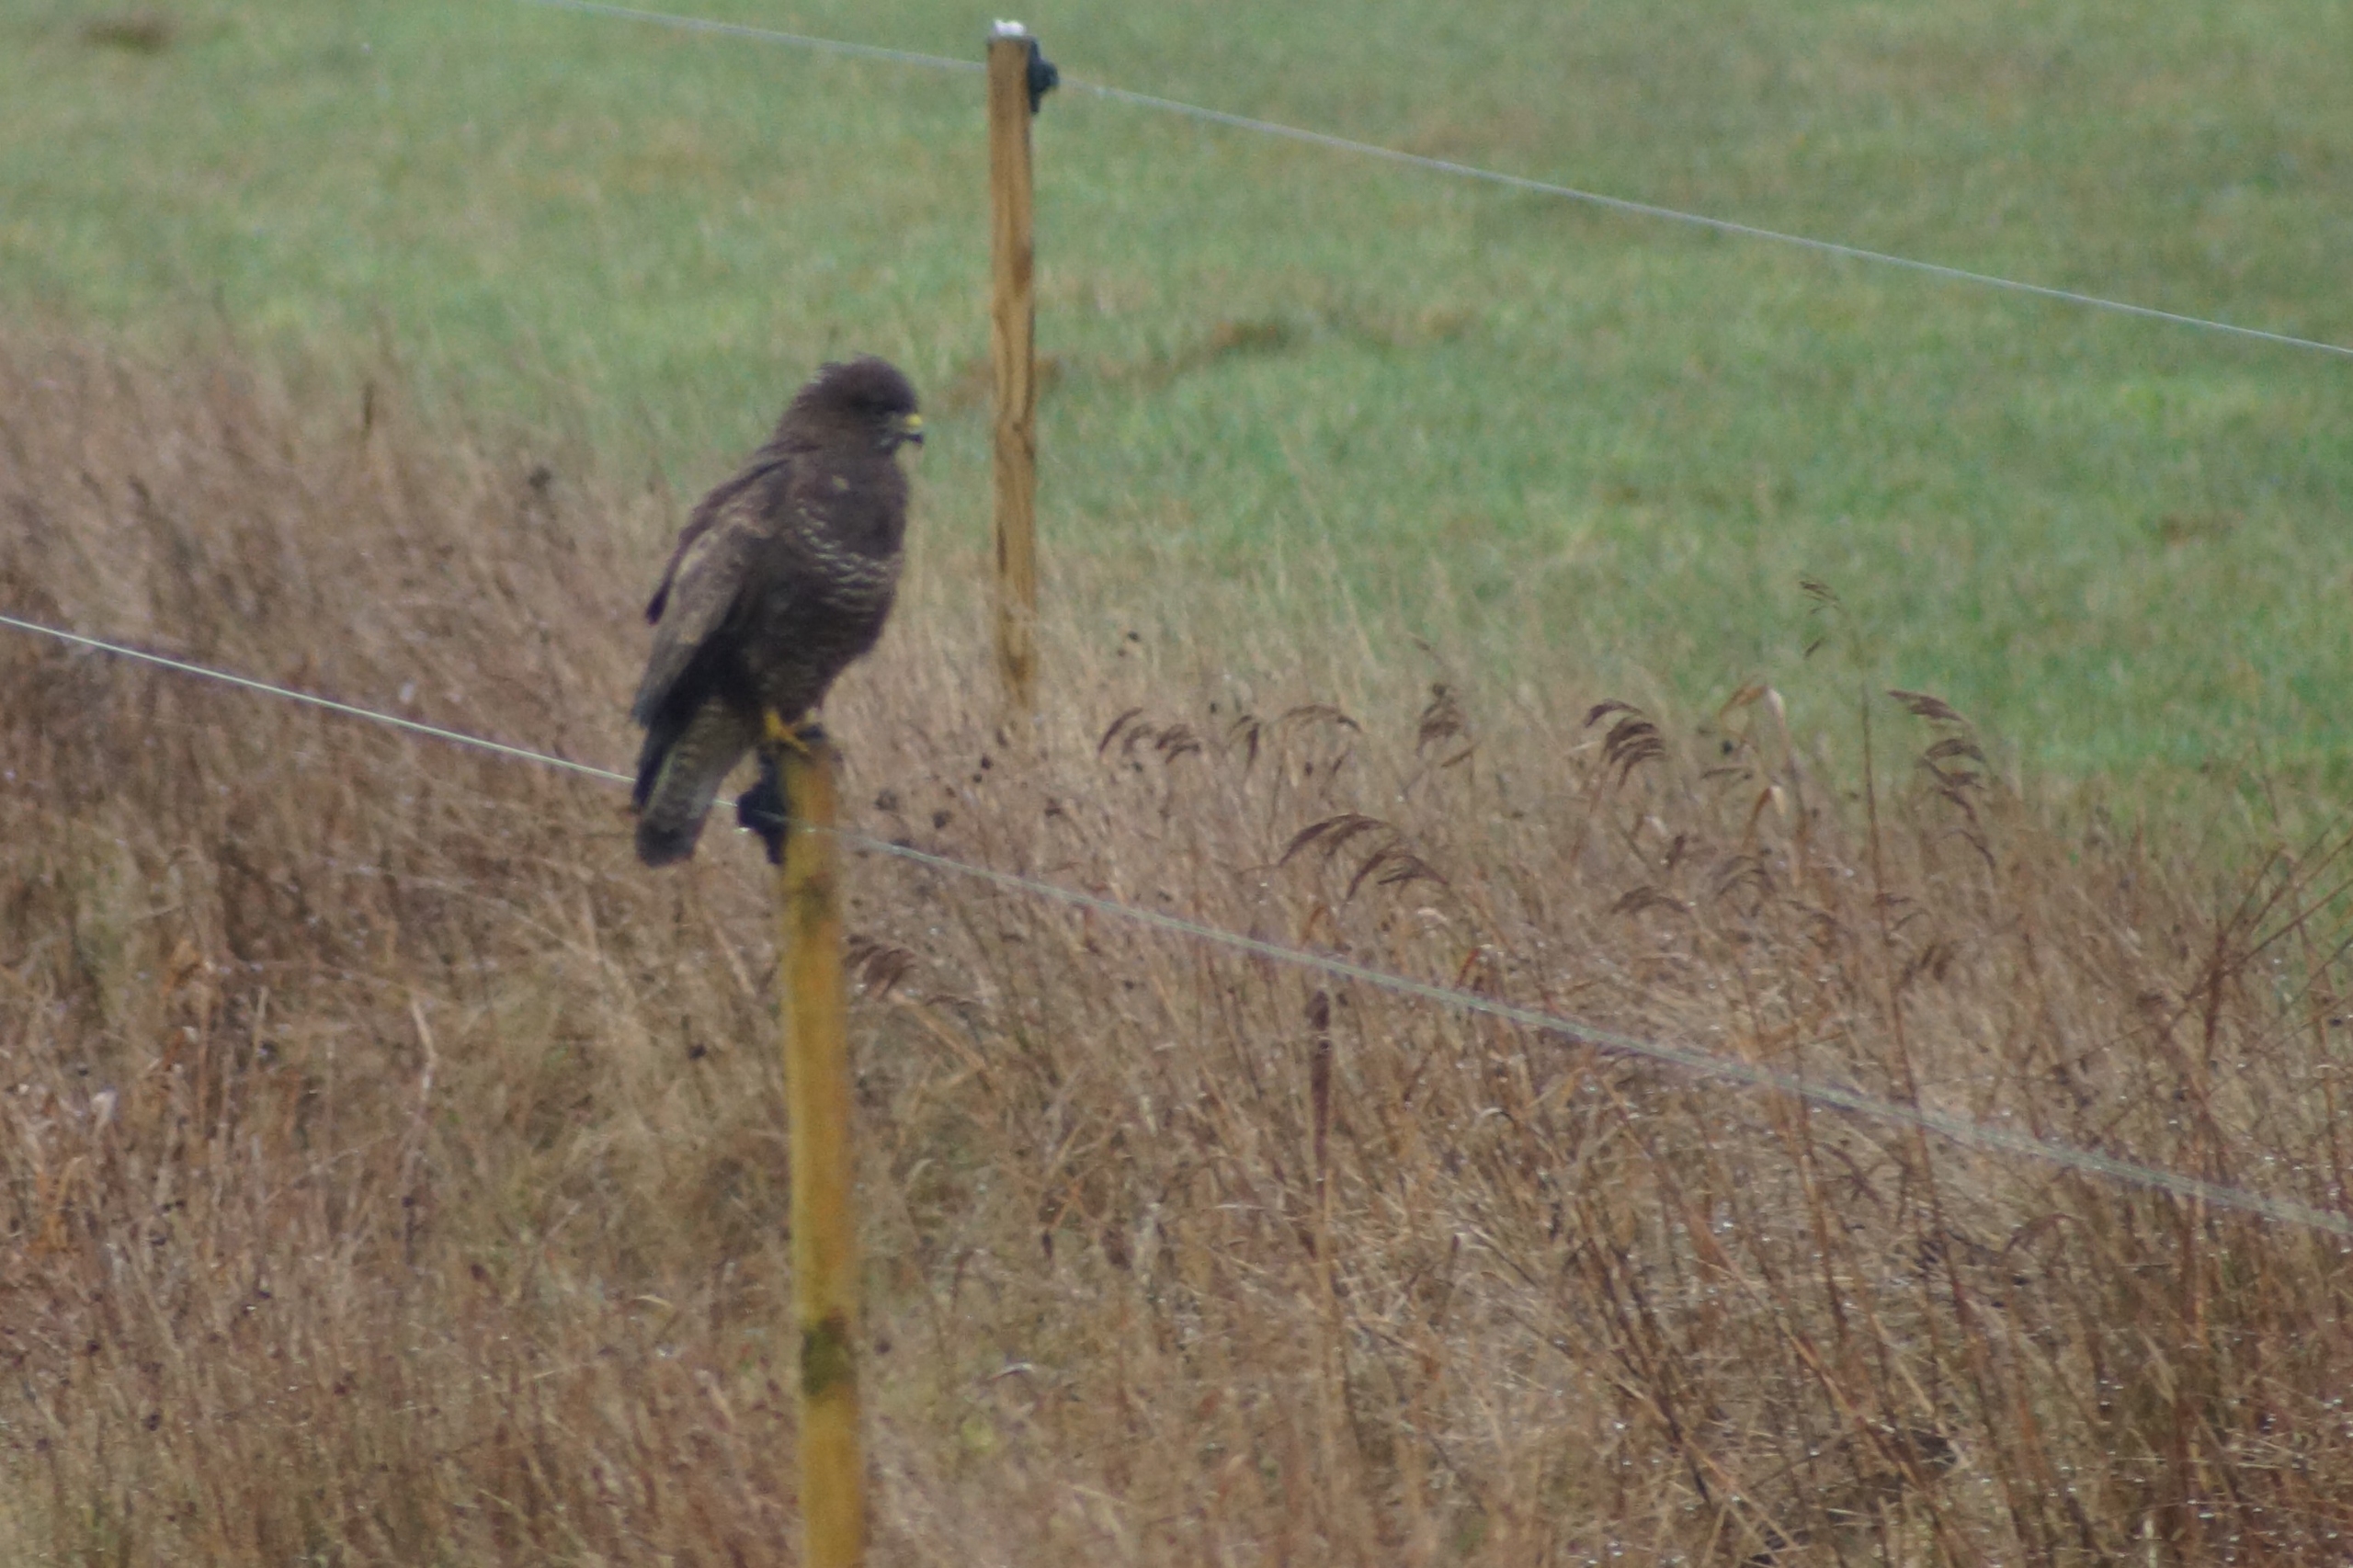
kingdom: Animalia
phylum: Chordata
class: Aves
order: Accipitriformes
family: Accipitridae
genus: Buteo
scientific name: Buteo buteo
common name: Musvåge
